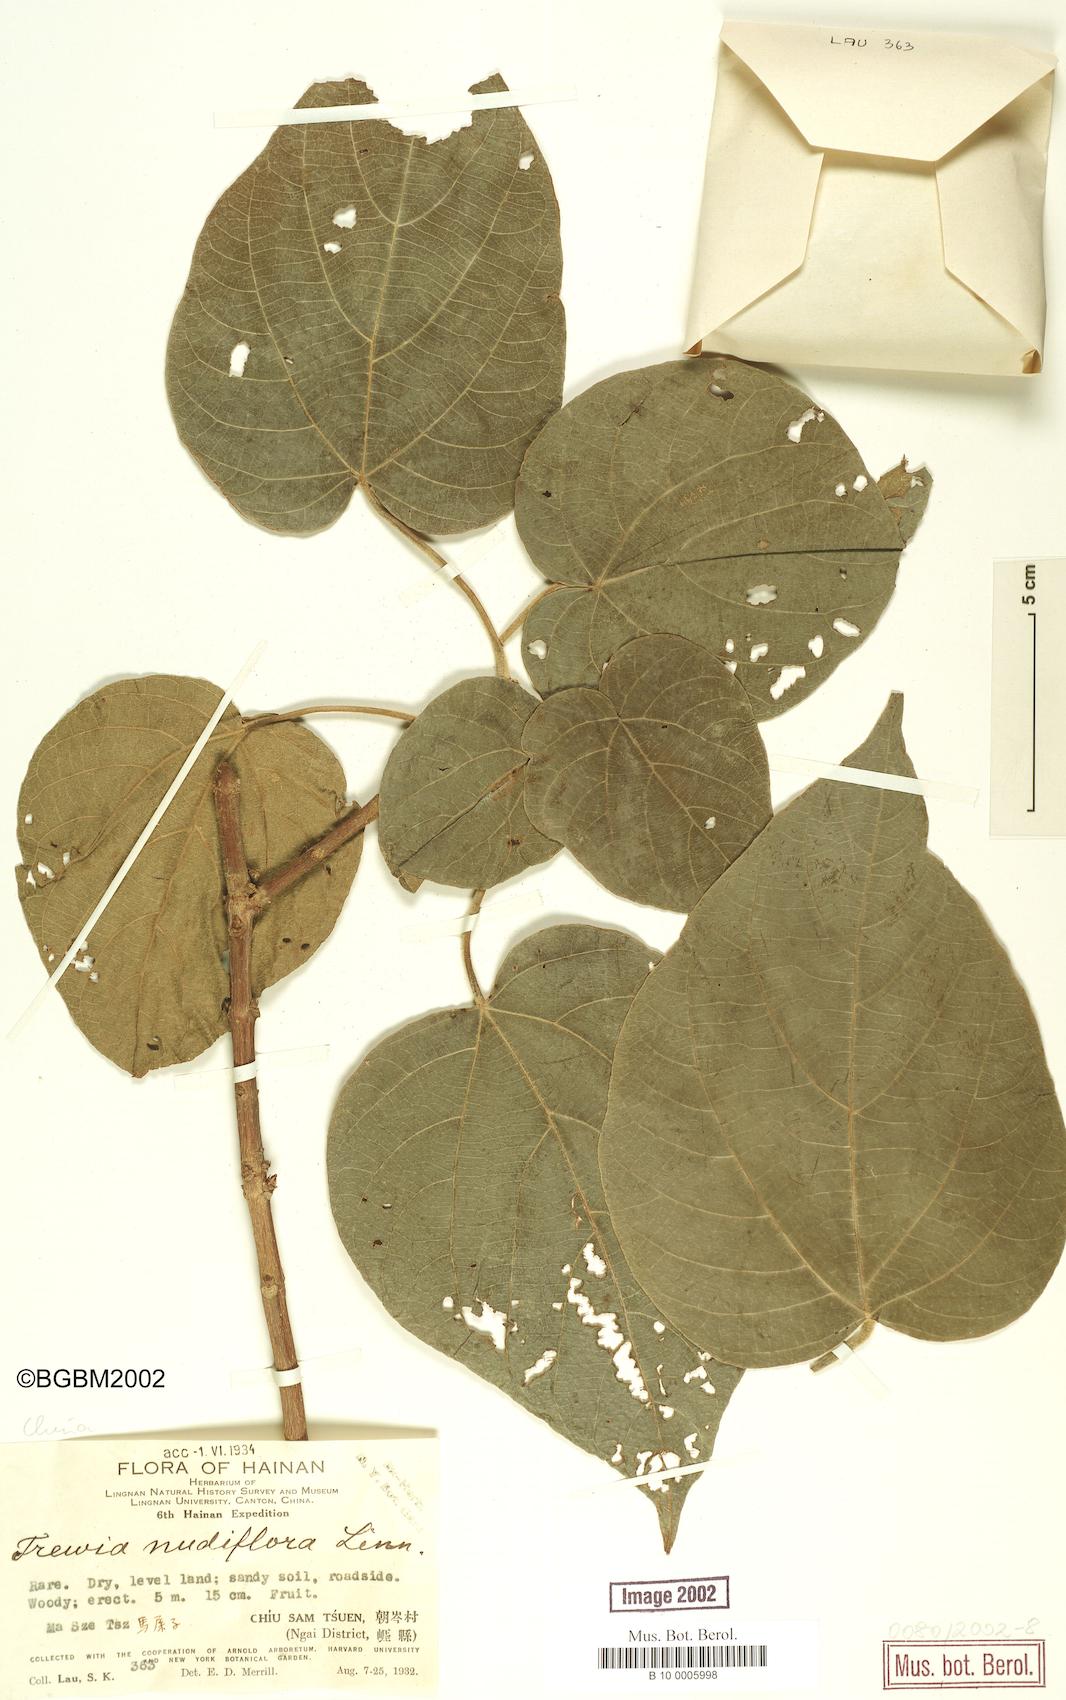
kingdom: Plantae
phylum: Tracheophyta
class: Magnoliopsida
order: Malpighiales
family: Euphorbiaceae
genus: Trewia
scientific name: Trewia nudiflora
